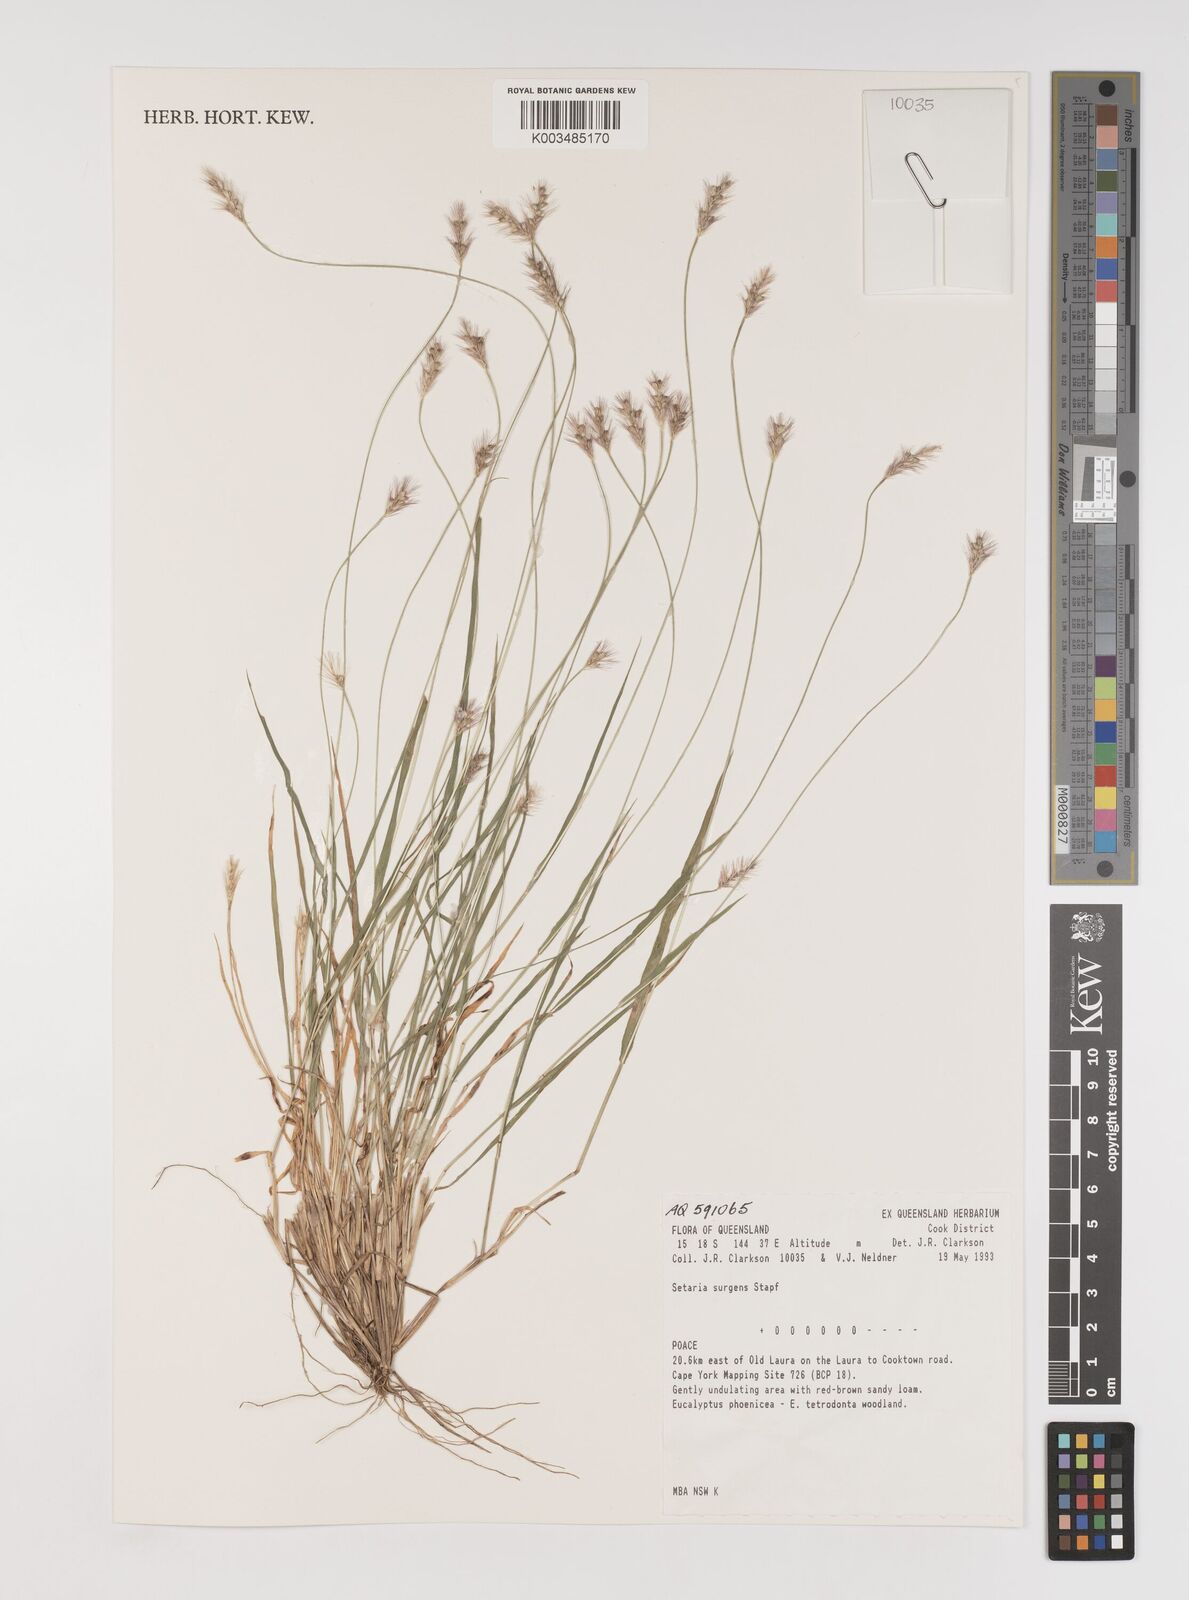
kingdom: Plantae
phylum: Tracheophyta
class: Liliopsida
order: Poales
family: Poaceae
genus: Setaria
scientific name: Setaria apiculata
